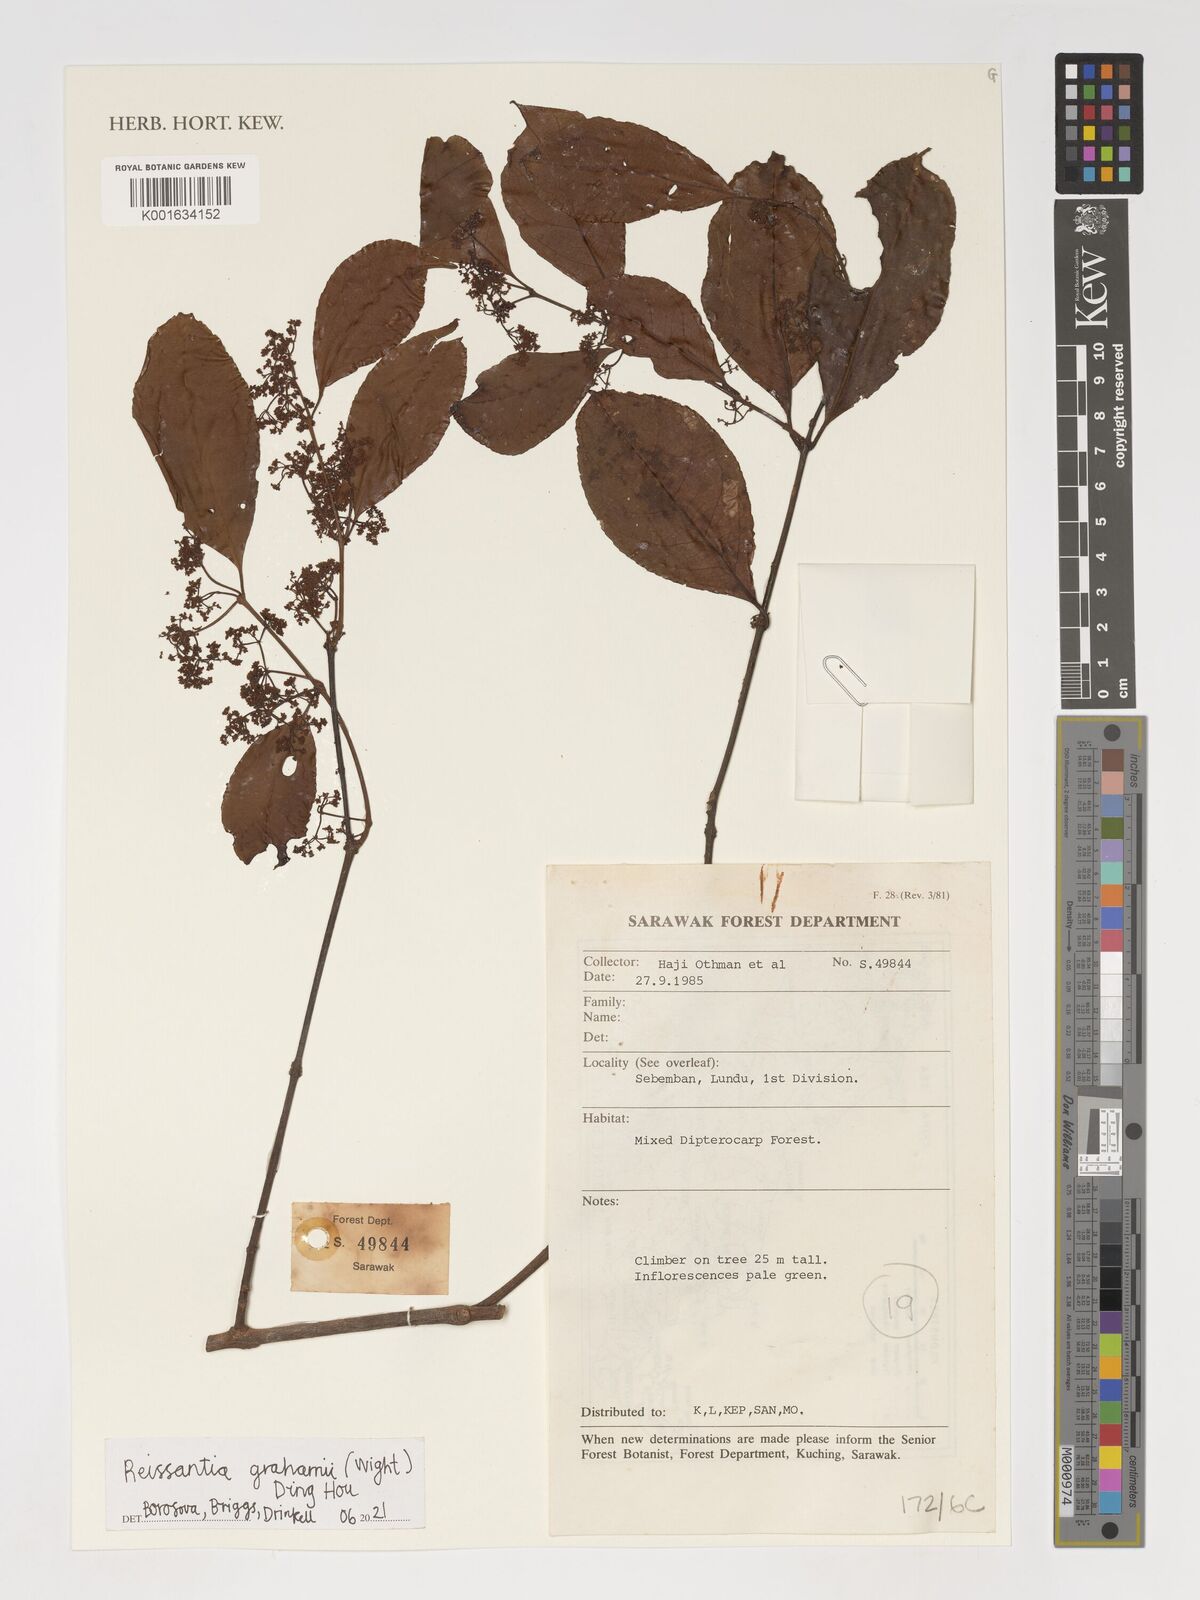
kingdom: Plantae
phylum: Tracheophyta
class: Magnoliopsida
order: Celastrales
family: Celastraceae
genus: Arnicratea
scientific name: Arnicratea grahamii
